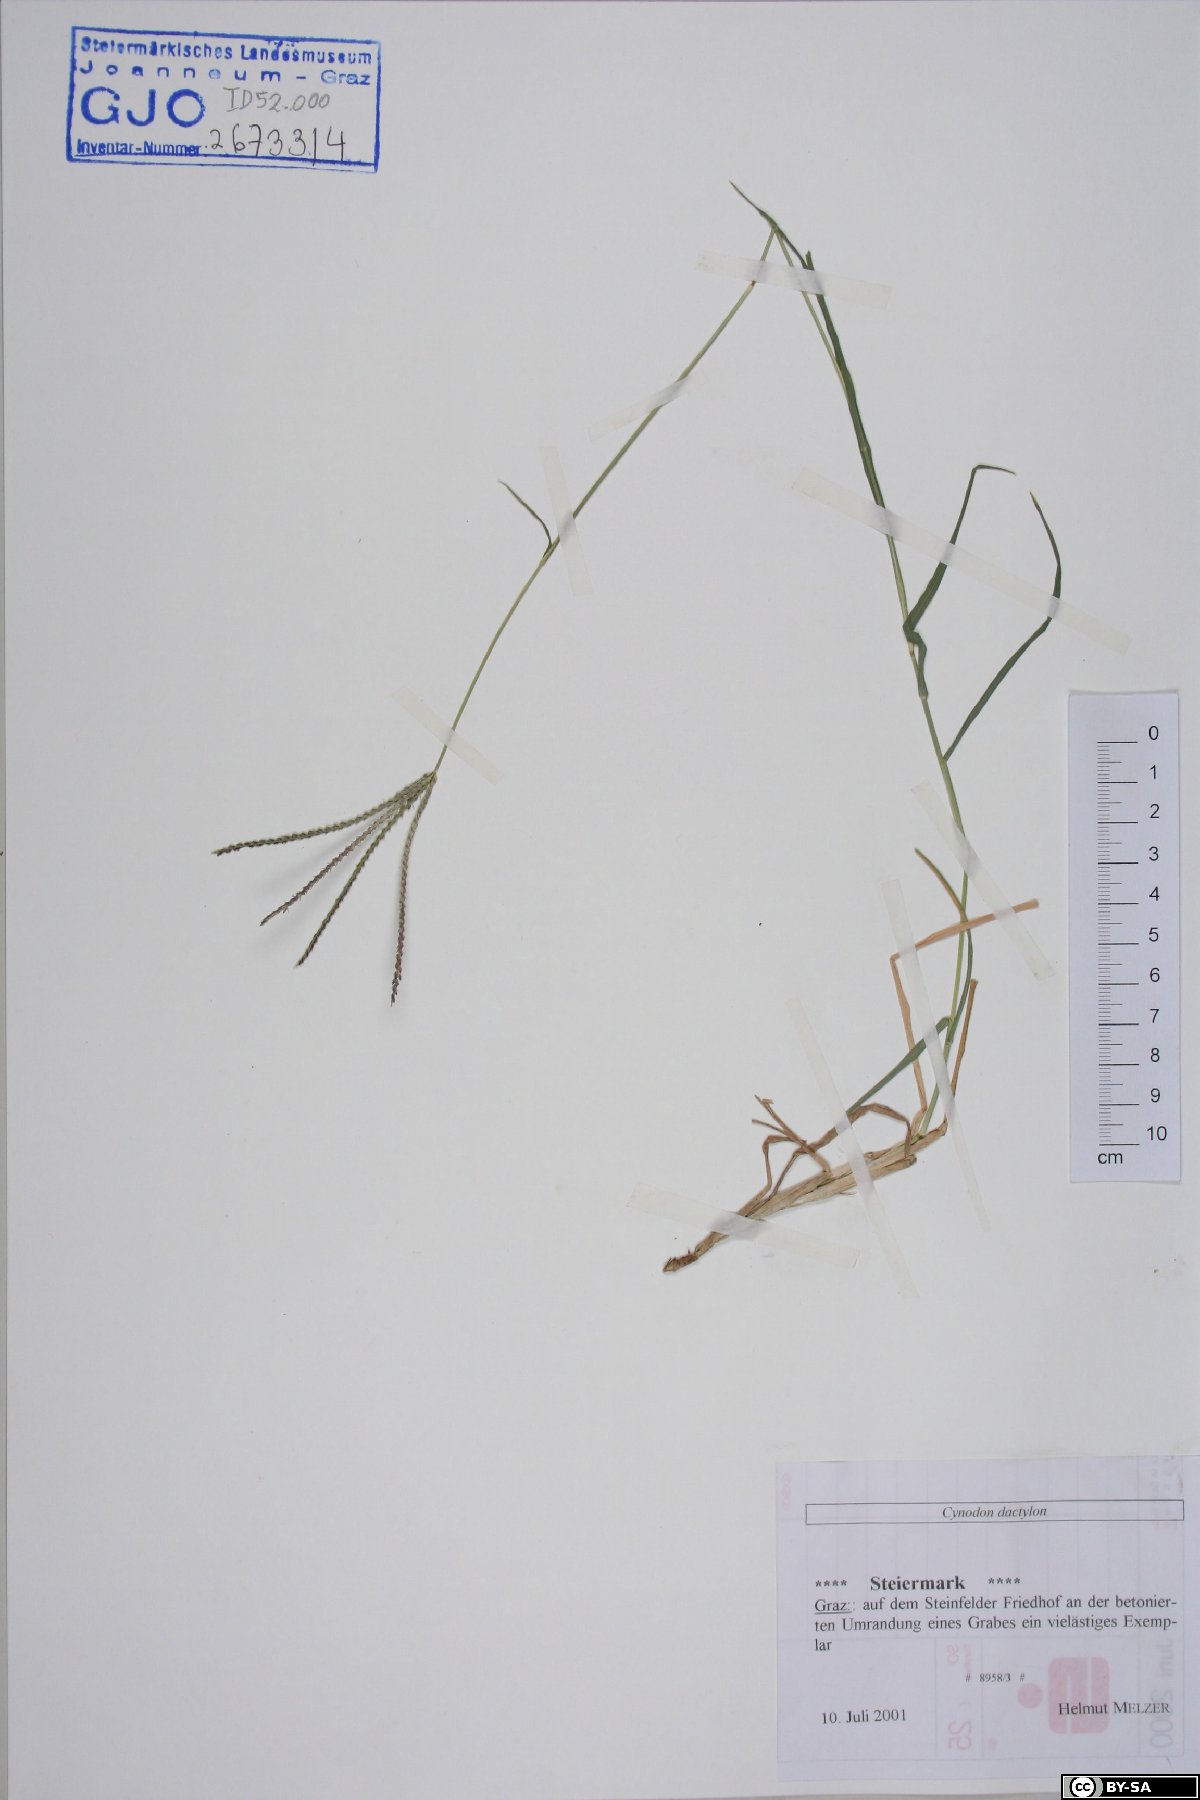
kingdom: Plantae
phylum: Tracheophyta
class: Liliopsida
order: Poales
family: Poaceae
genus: Cynodon
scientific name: Cynodon dactylon
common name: Bermuda grass
